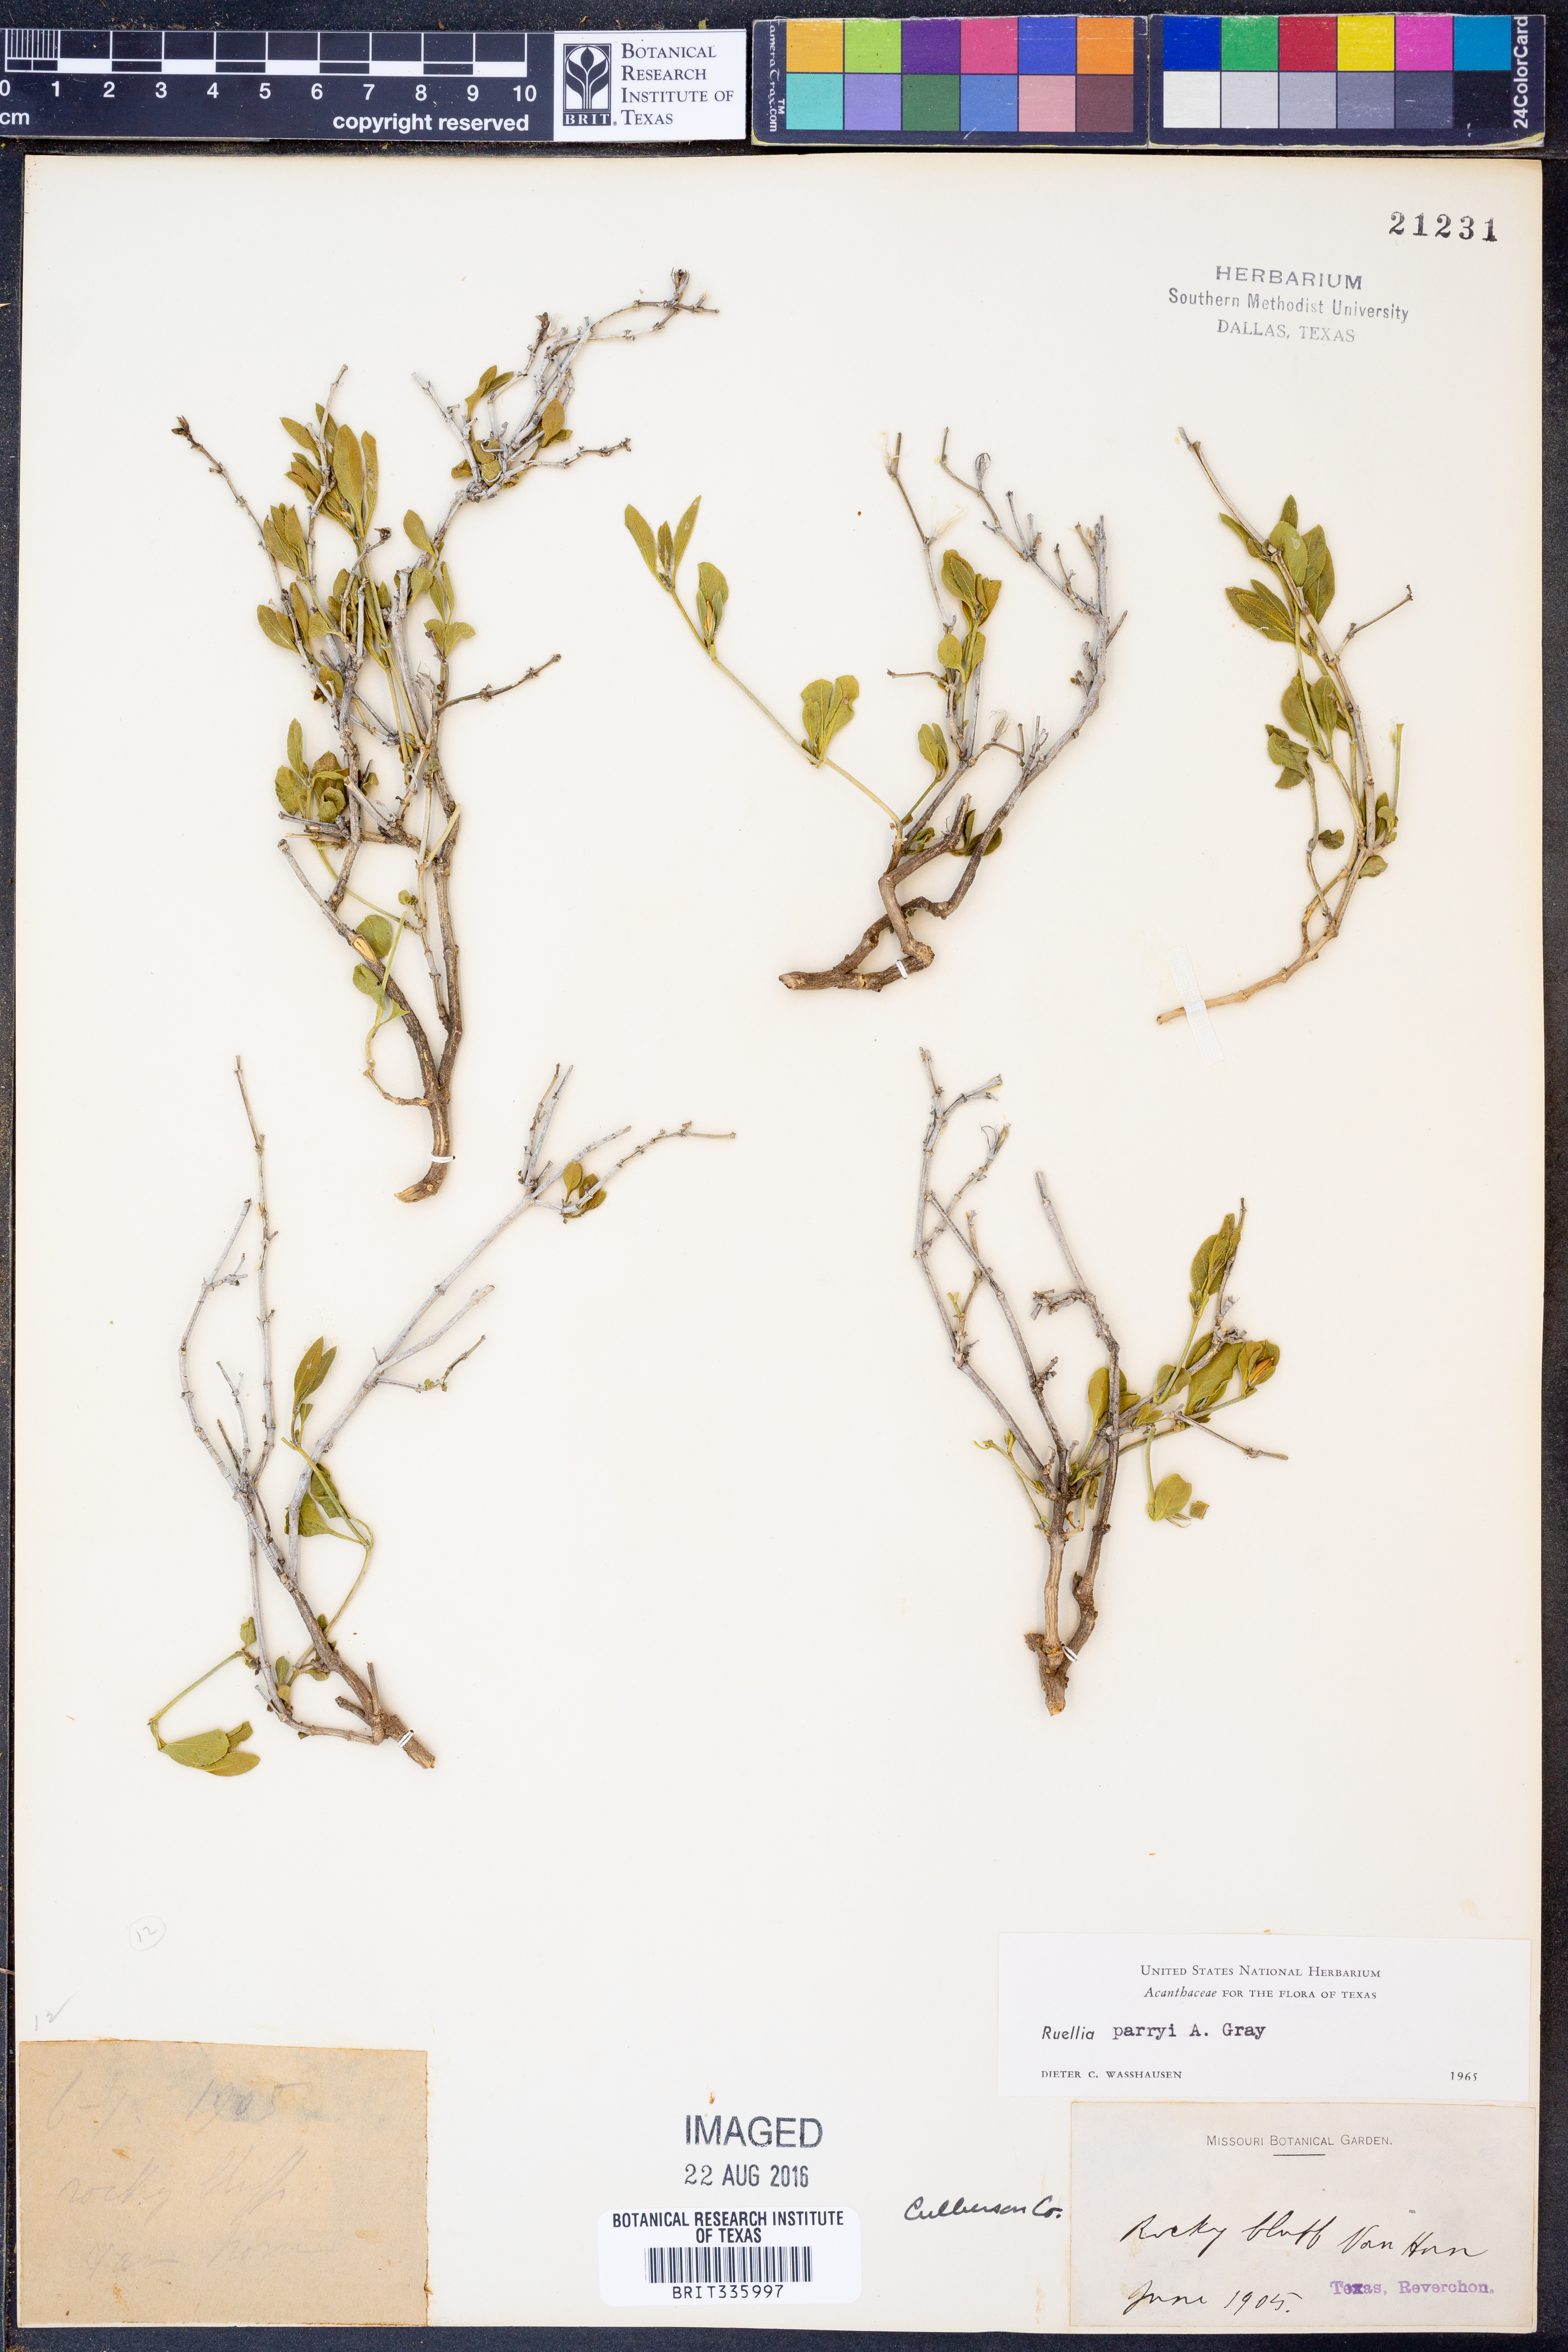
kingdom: Plantae
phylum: Tracheophyta
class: Magnoliopsida
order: Lamiales
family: Acanthaceae
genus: Ruellia
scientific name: Ruellia parryi
